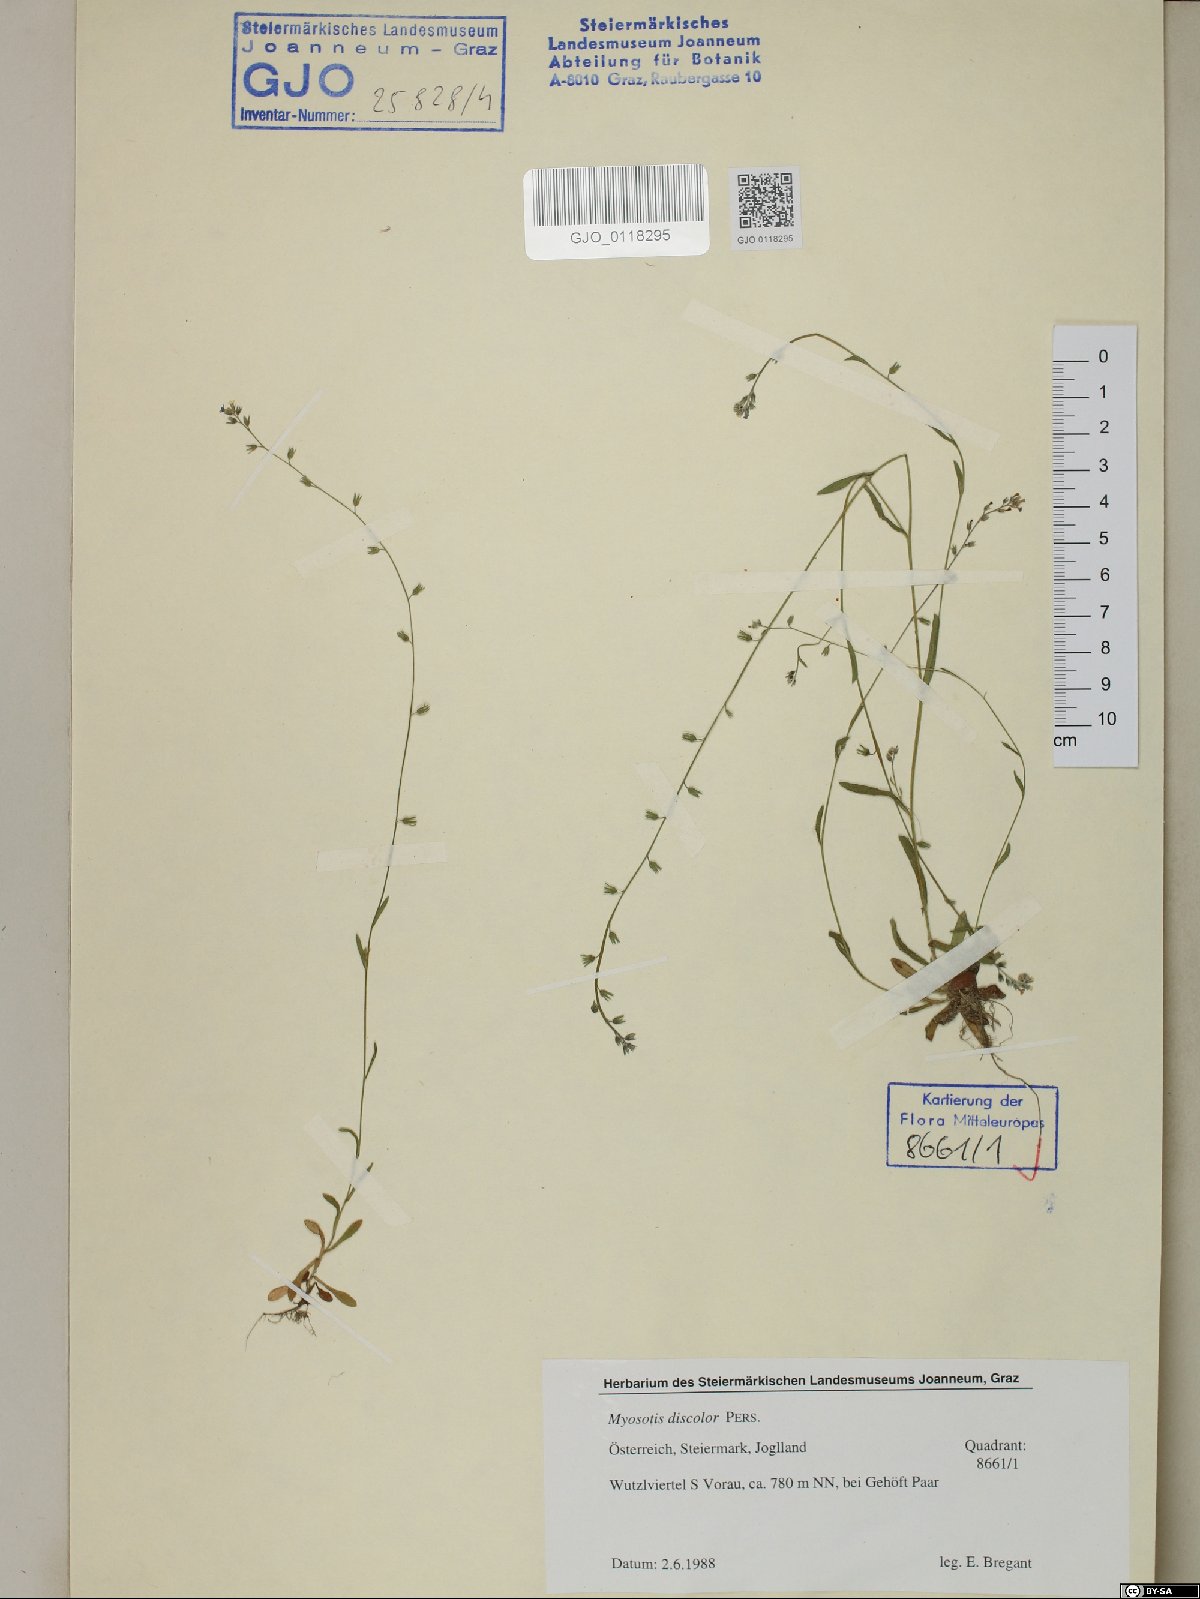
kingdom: Plantae
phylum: Tracheophyta
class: Magnoliopsida
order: Boraginales
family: Boraginaceae
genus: Myosotis
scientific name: Myosotis discolor
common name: Changing forget-me-not
